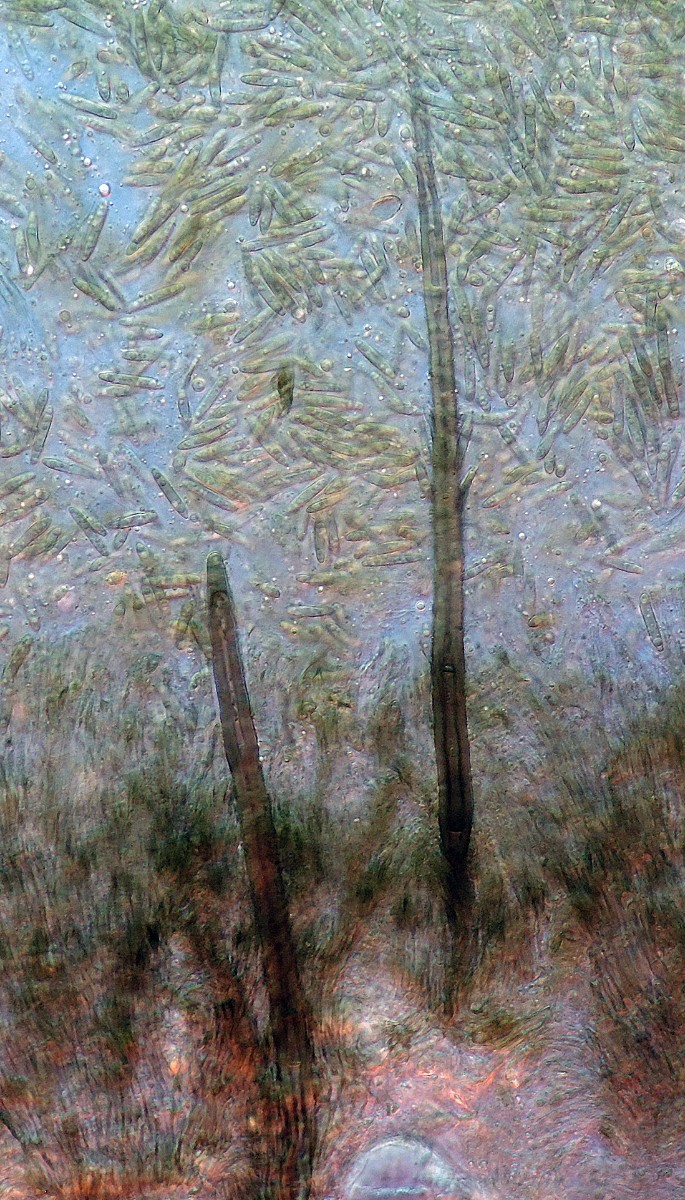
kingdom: Fungi
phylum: Ascomycota
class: Sordariomycetes
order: Hypocreales
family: Stachybotryaceae
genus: Myrothecium
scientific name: Myrothecium atroviride
